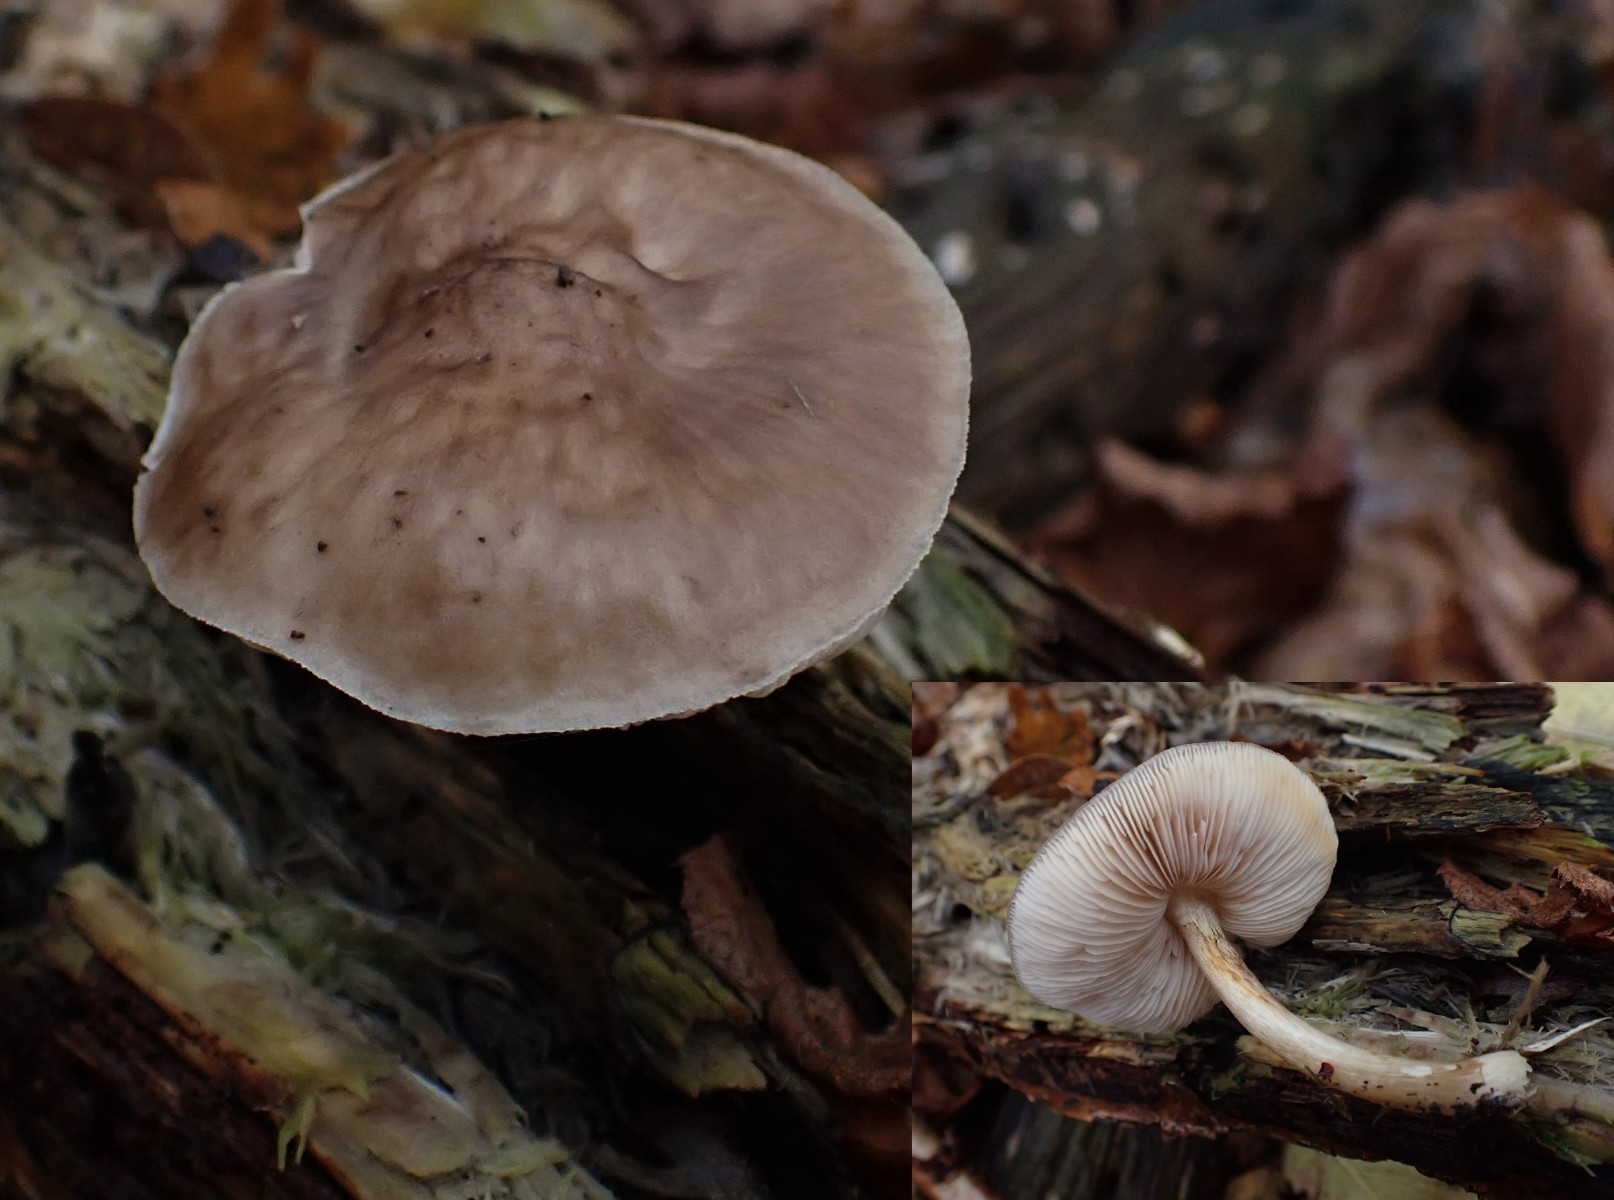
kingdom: Fungi
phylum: Basidiomycota
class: Agaricomycetes
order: Agaricales
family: Pluteaceae
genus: Pluteus
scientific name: Pluteus cervinus
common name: sodfarvet skærmhat
